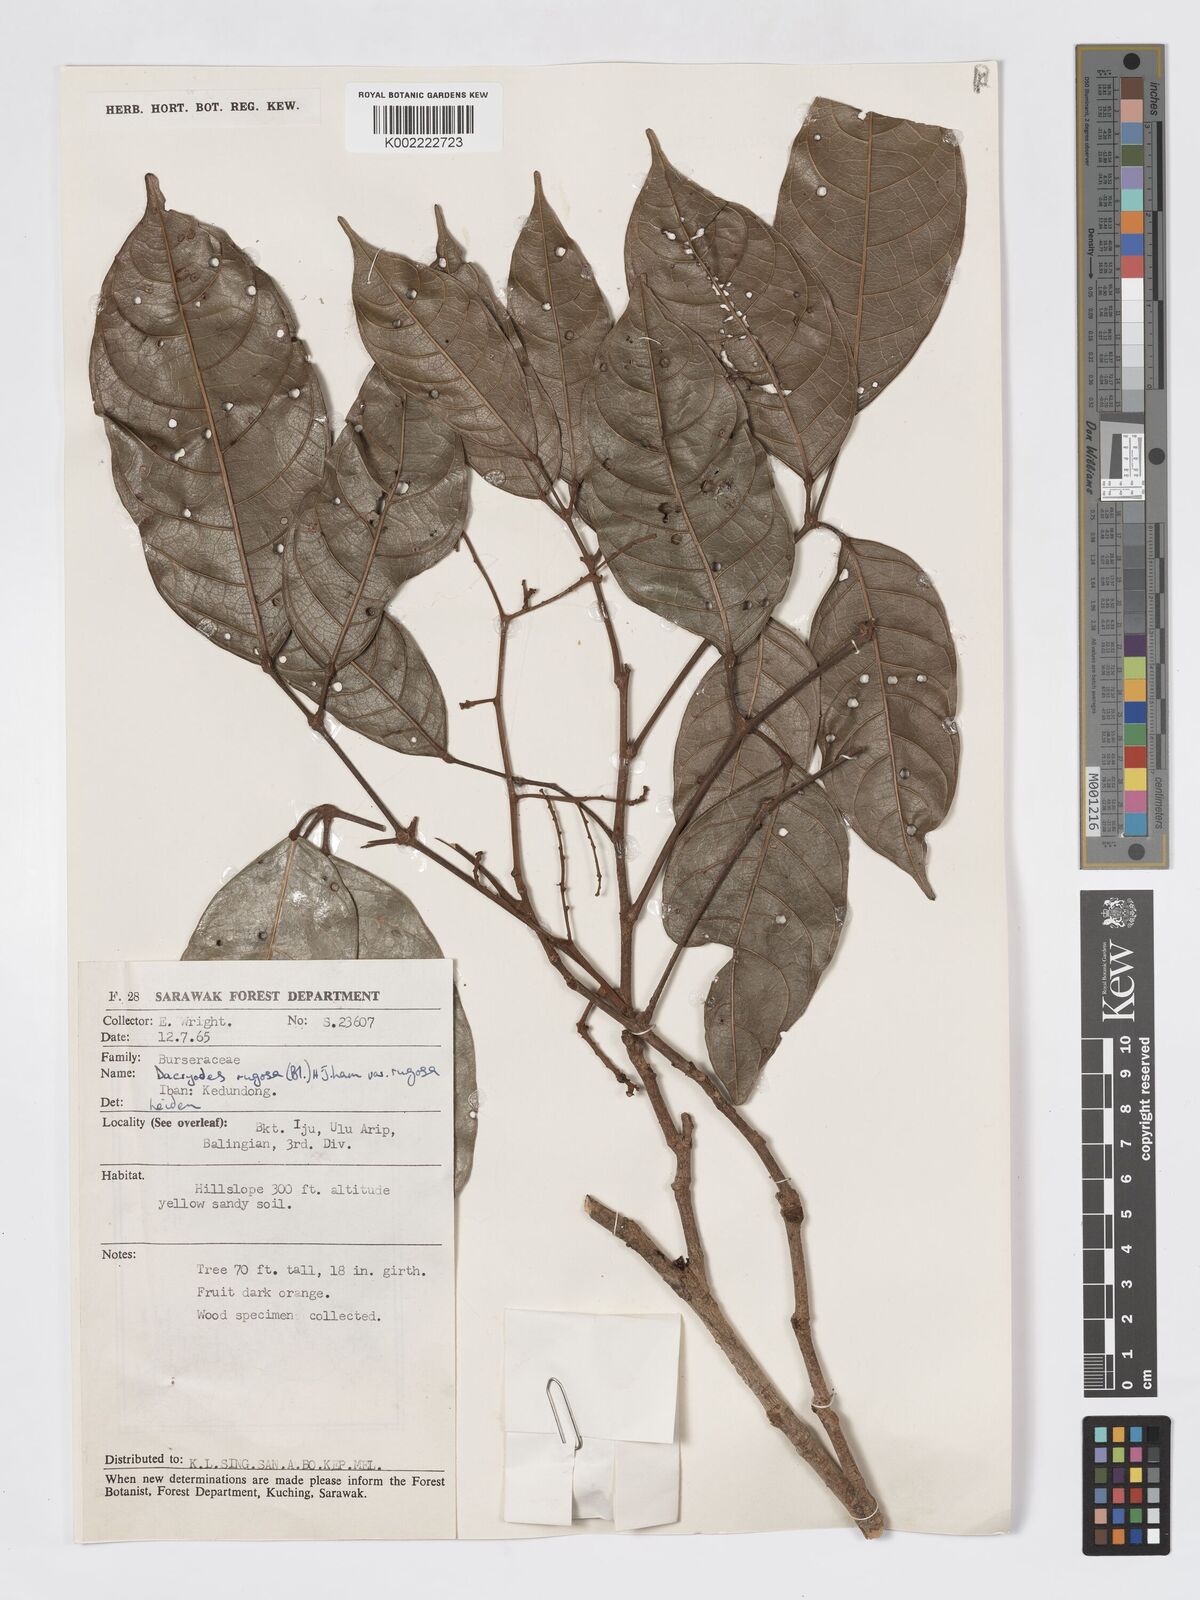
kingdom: Plantae
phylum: Tracheophyta
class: Magnoliopsida
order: Sapindales
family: Burseraceae
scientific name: Burseraceae
